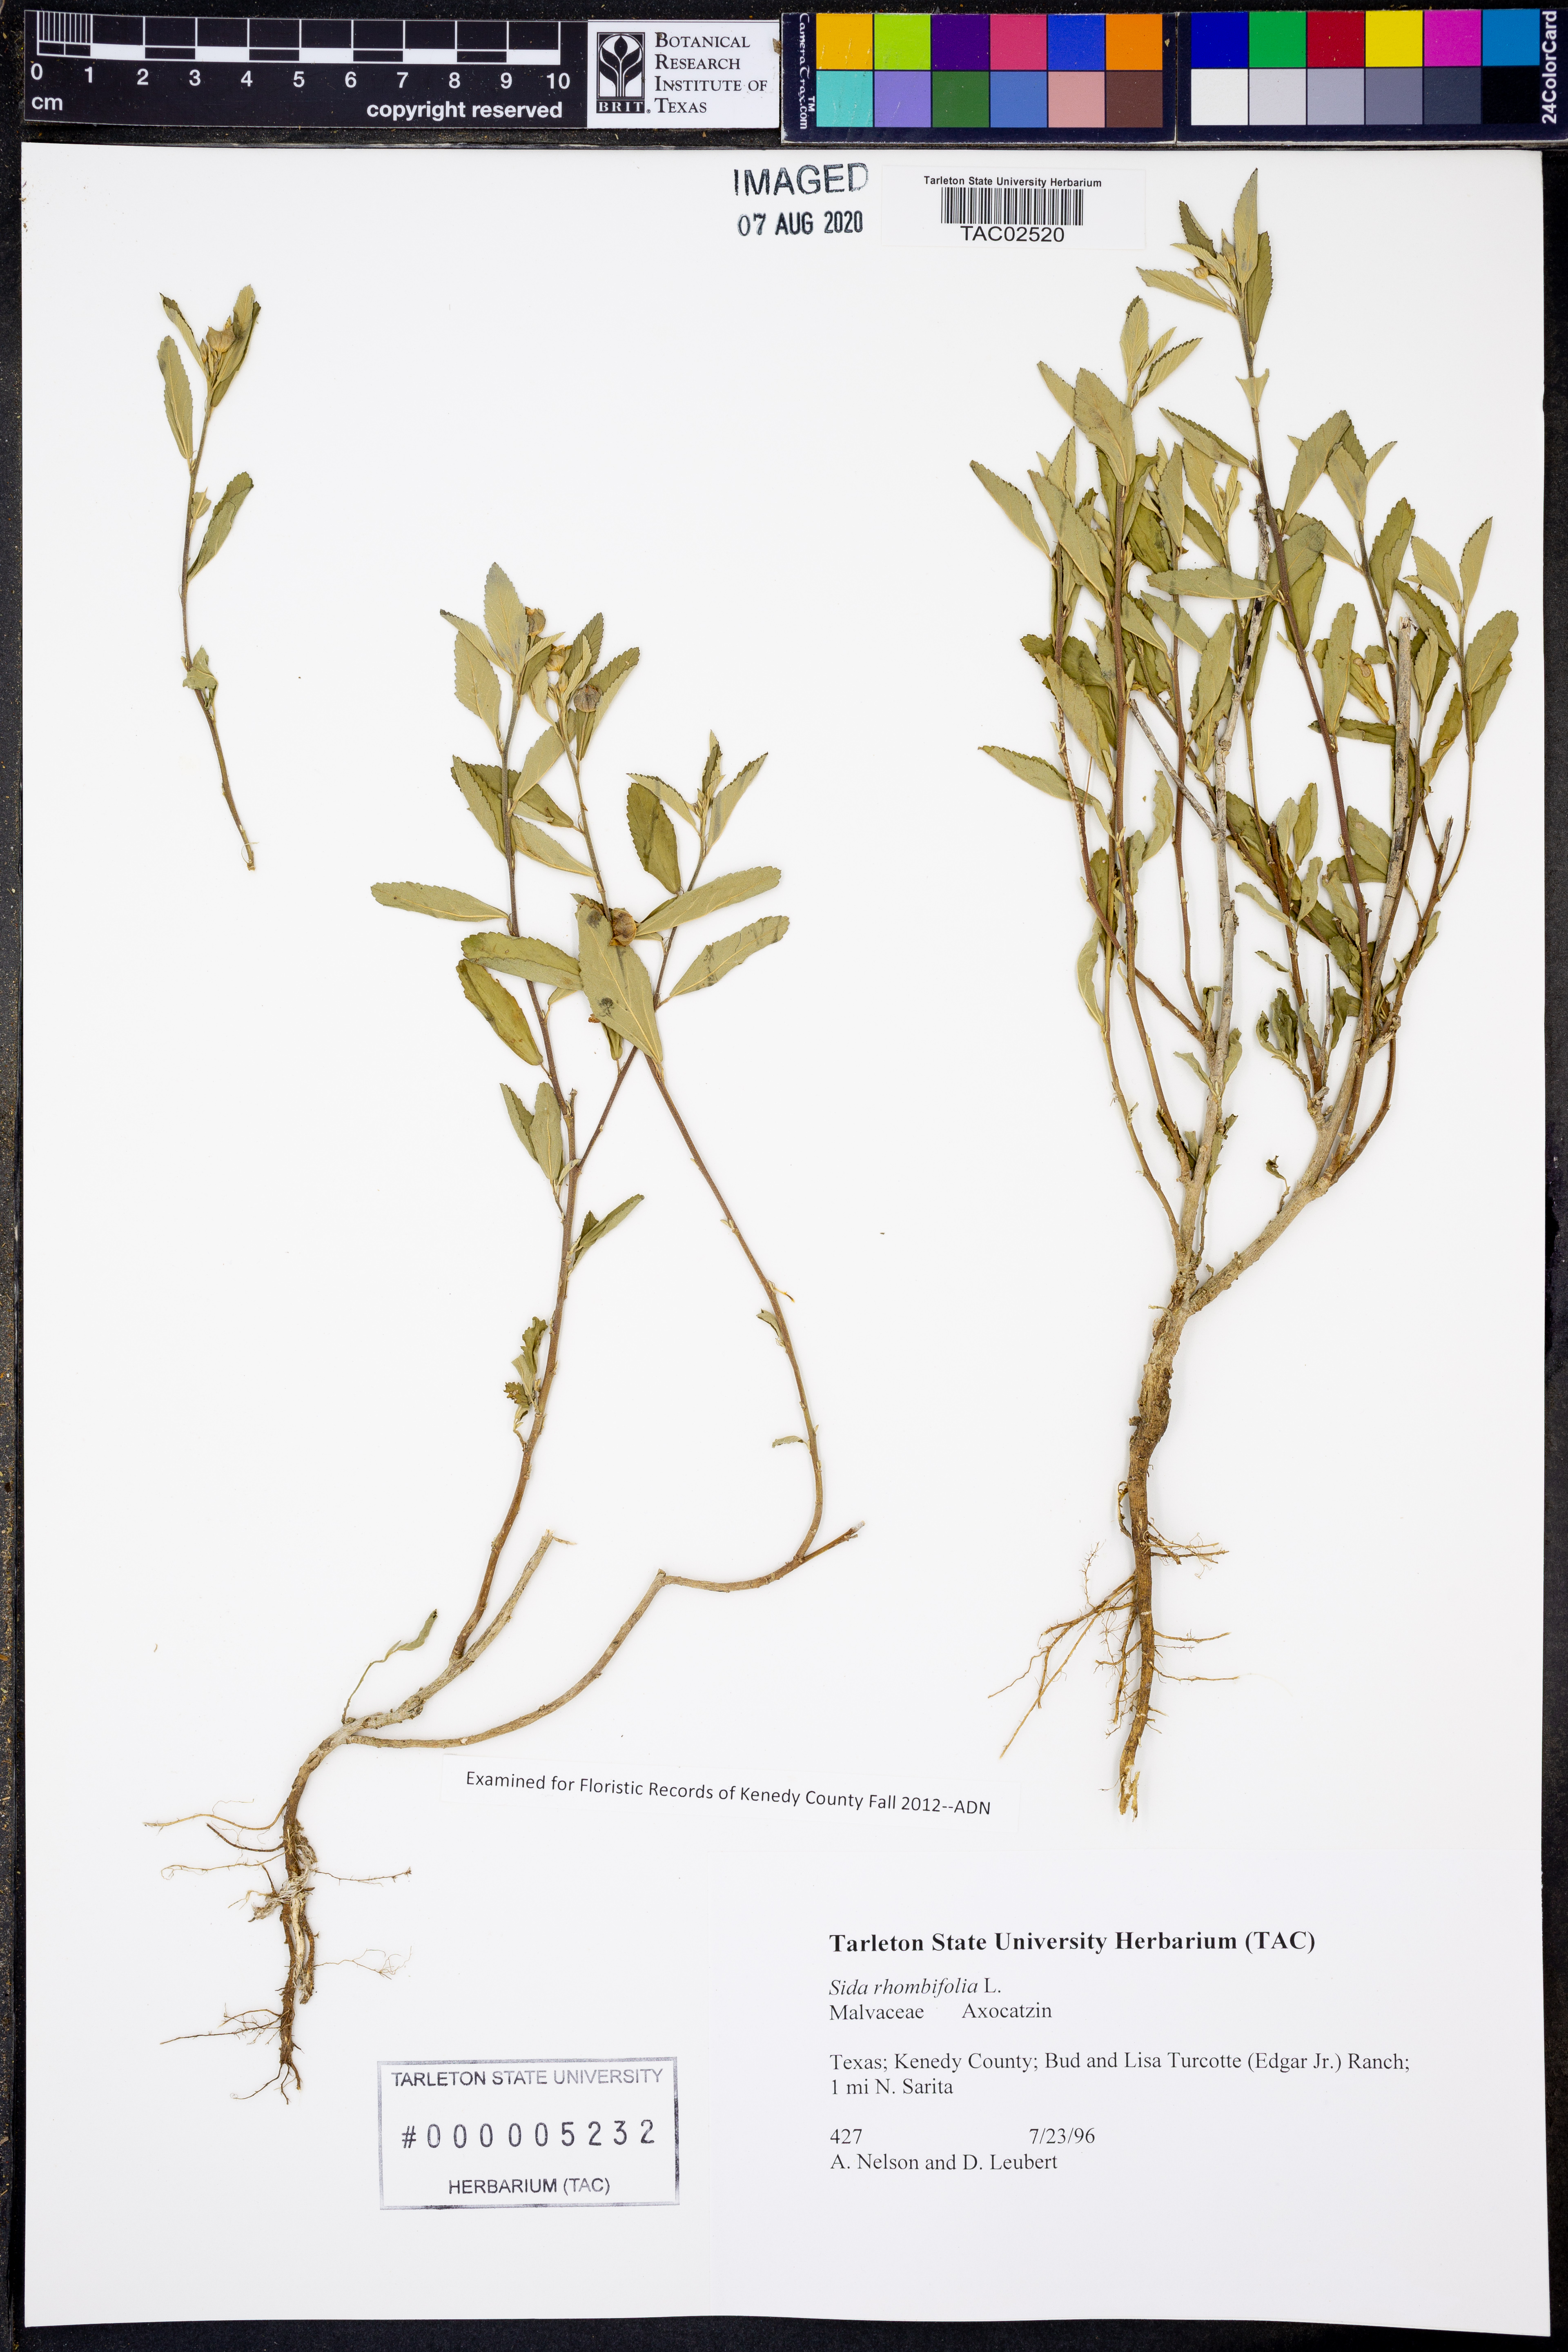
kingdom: Plantae
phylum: Tracheophyta
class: Magnoliopsida
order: Malvales
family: Malvaceae
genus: Sida
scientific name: Sida rhombifolia
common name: Queensland-hemp
